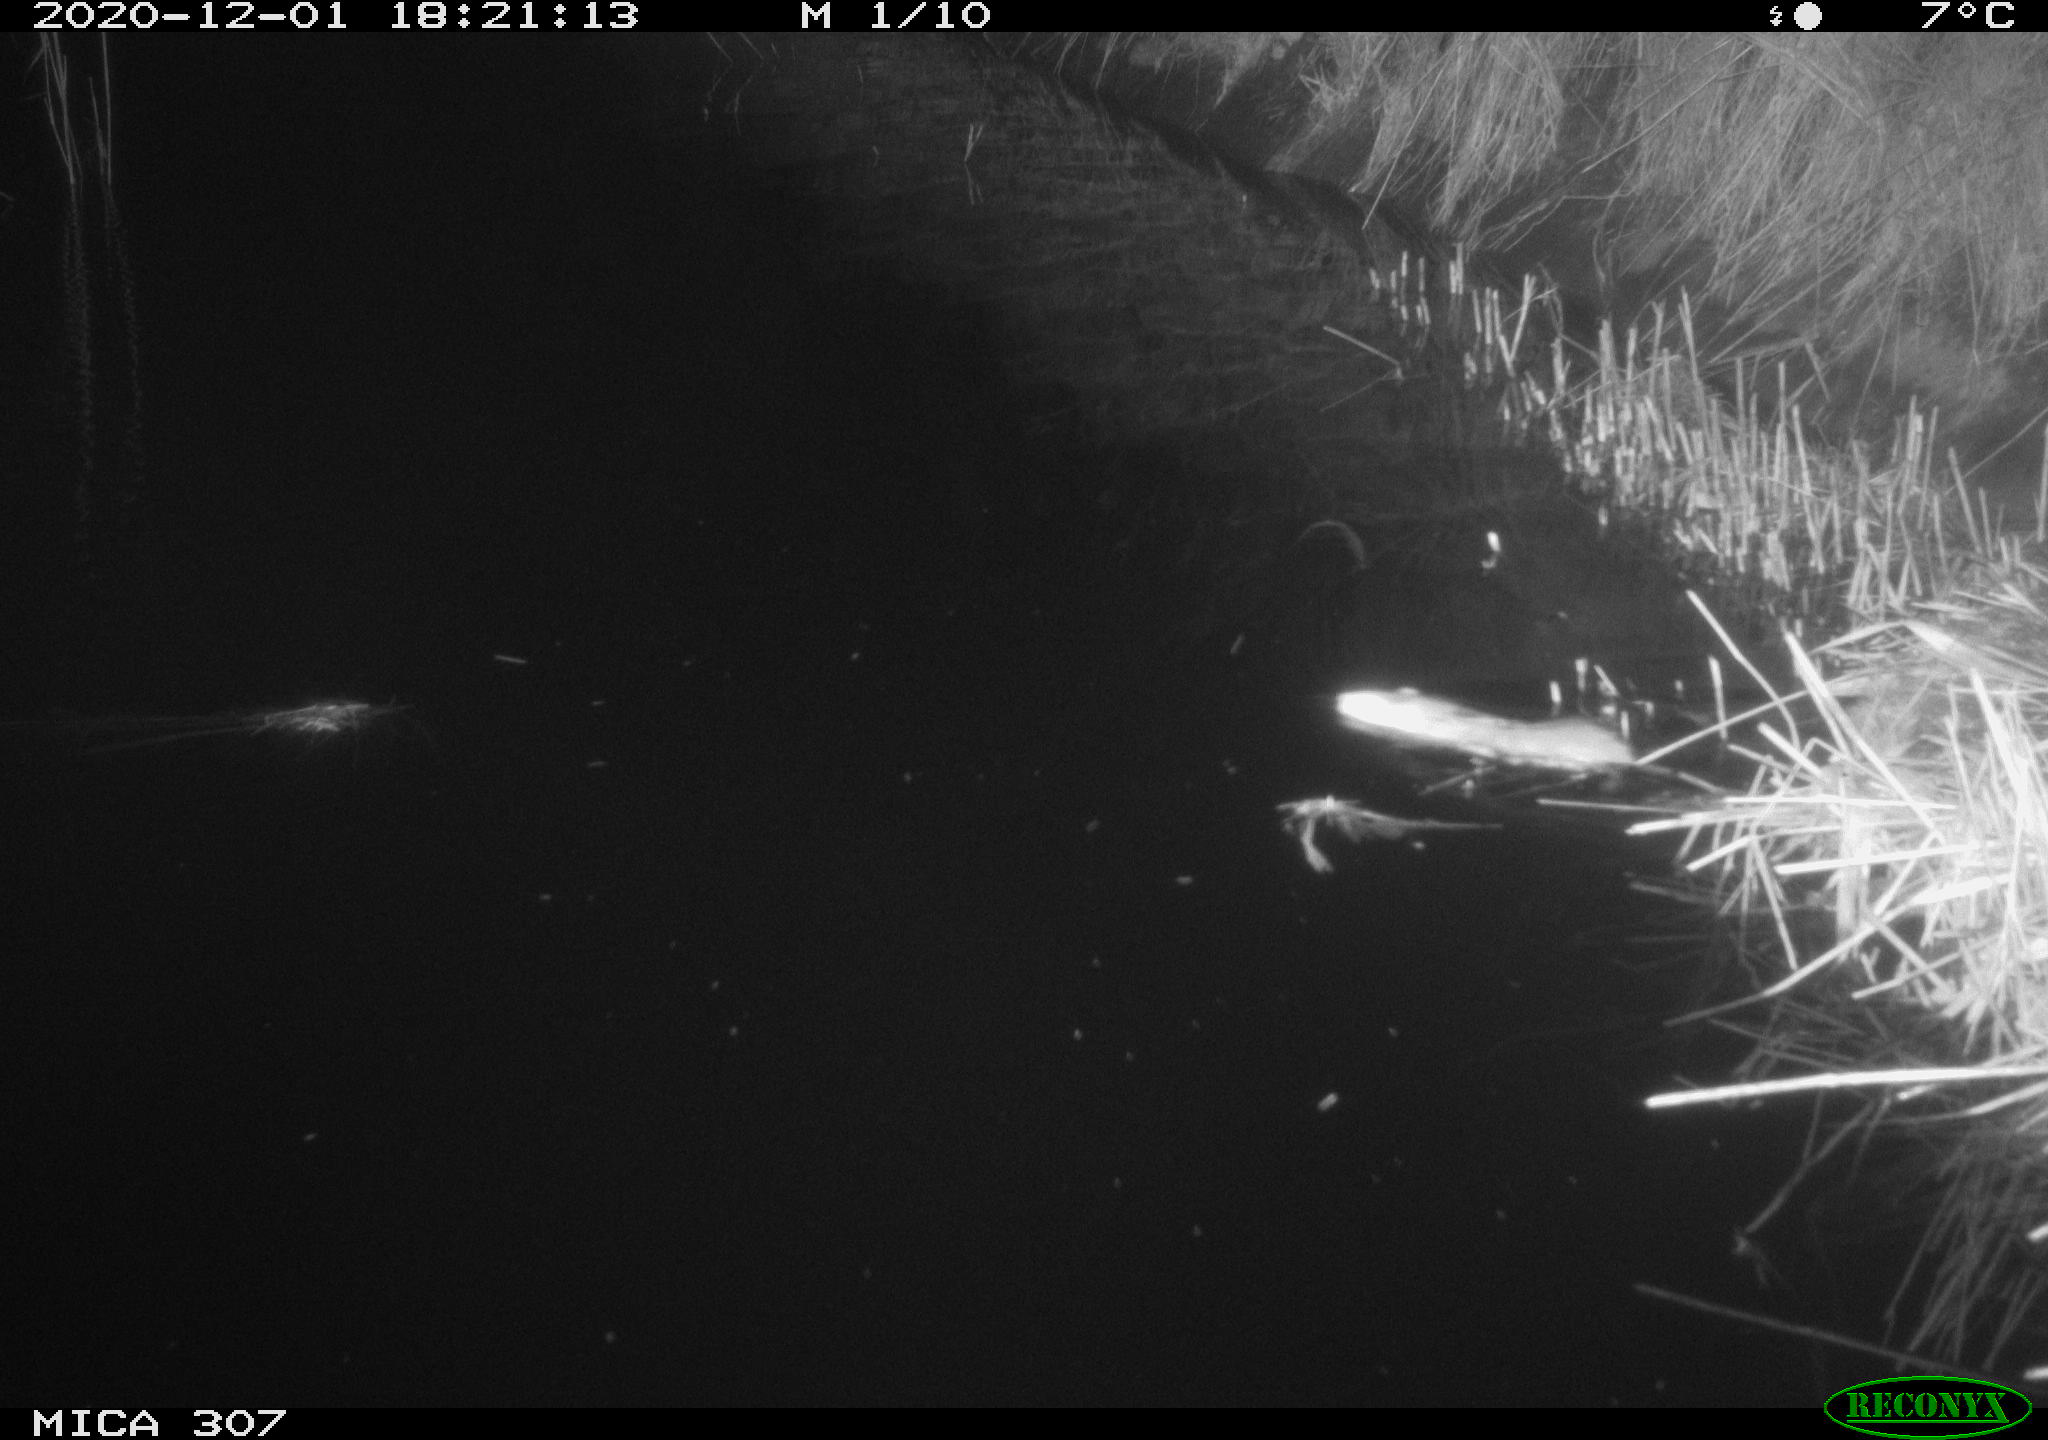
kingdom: Animalia
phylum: Chordata
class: Mammalia
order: Rodentia
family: Muridae
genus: Rattus
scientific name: Rattus norvegicus
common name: Brown rat
